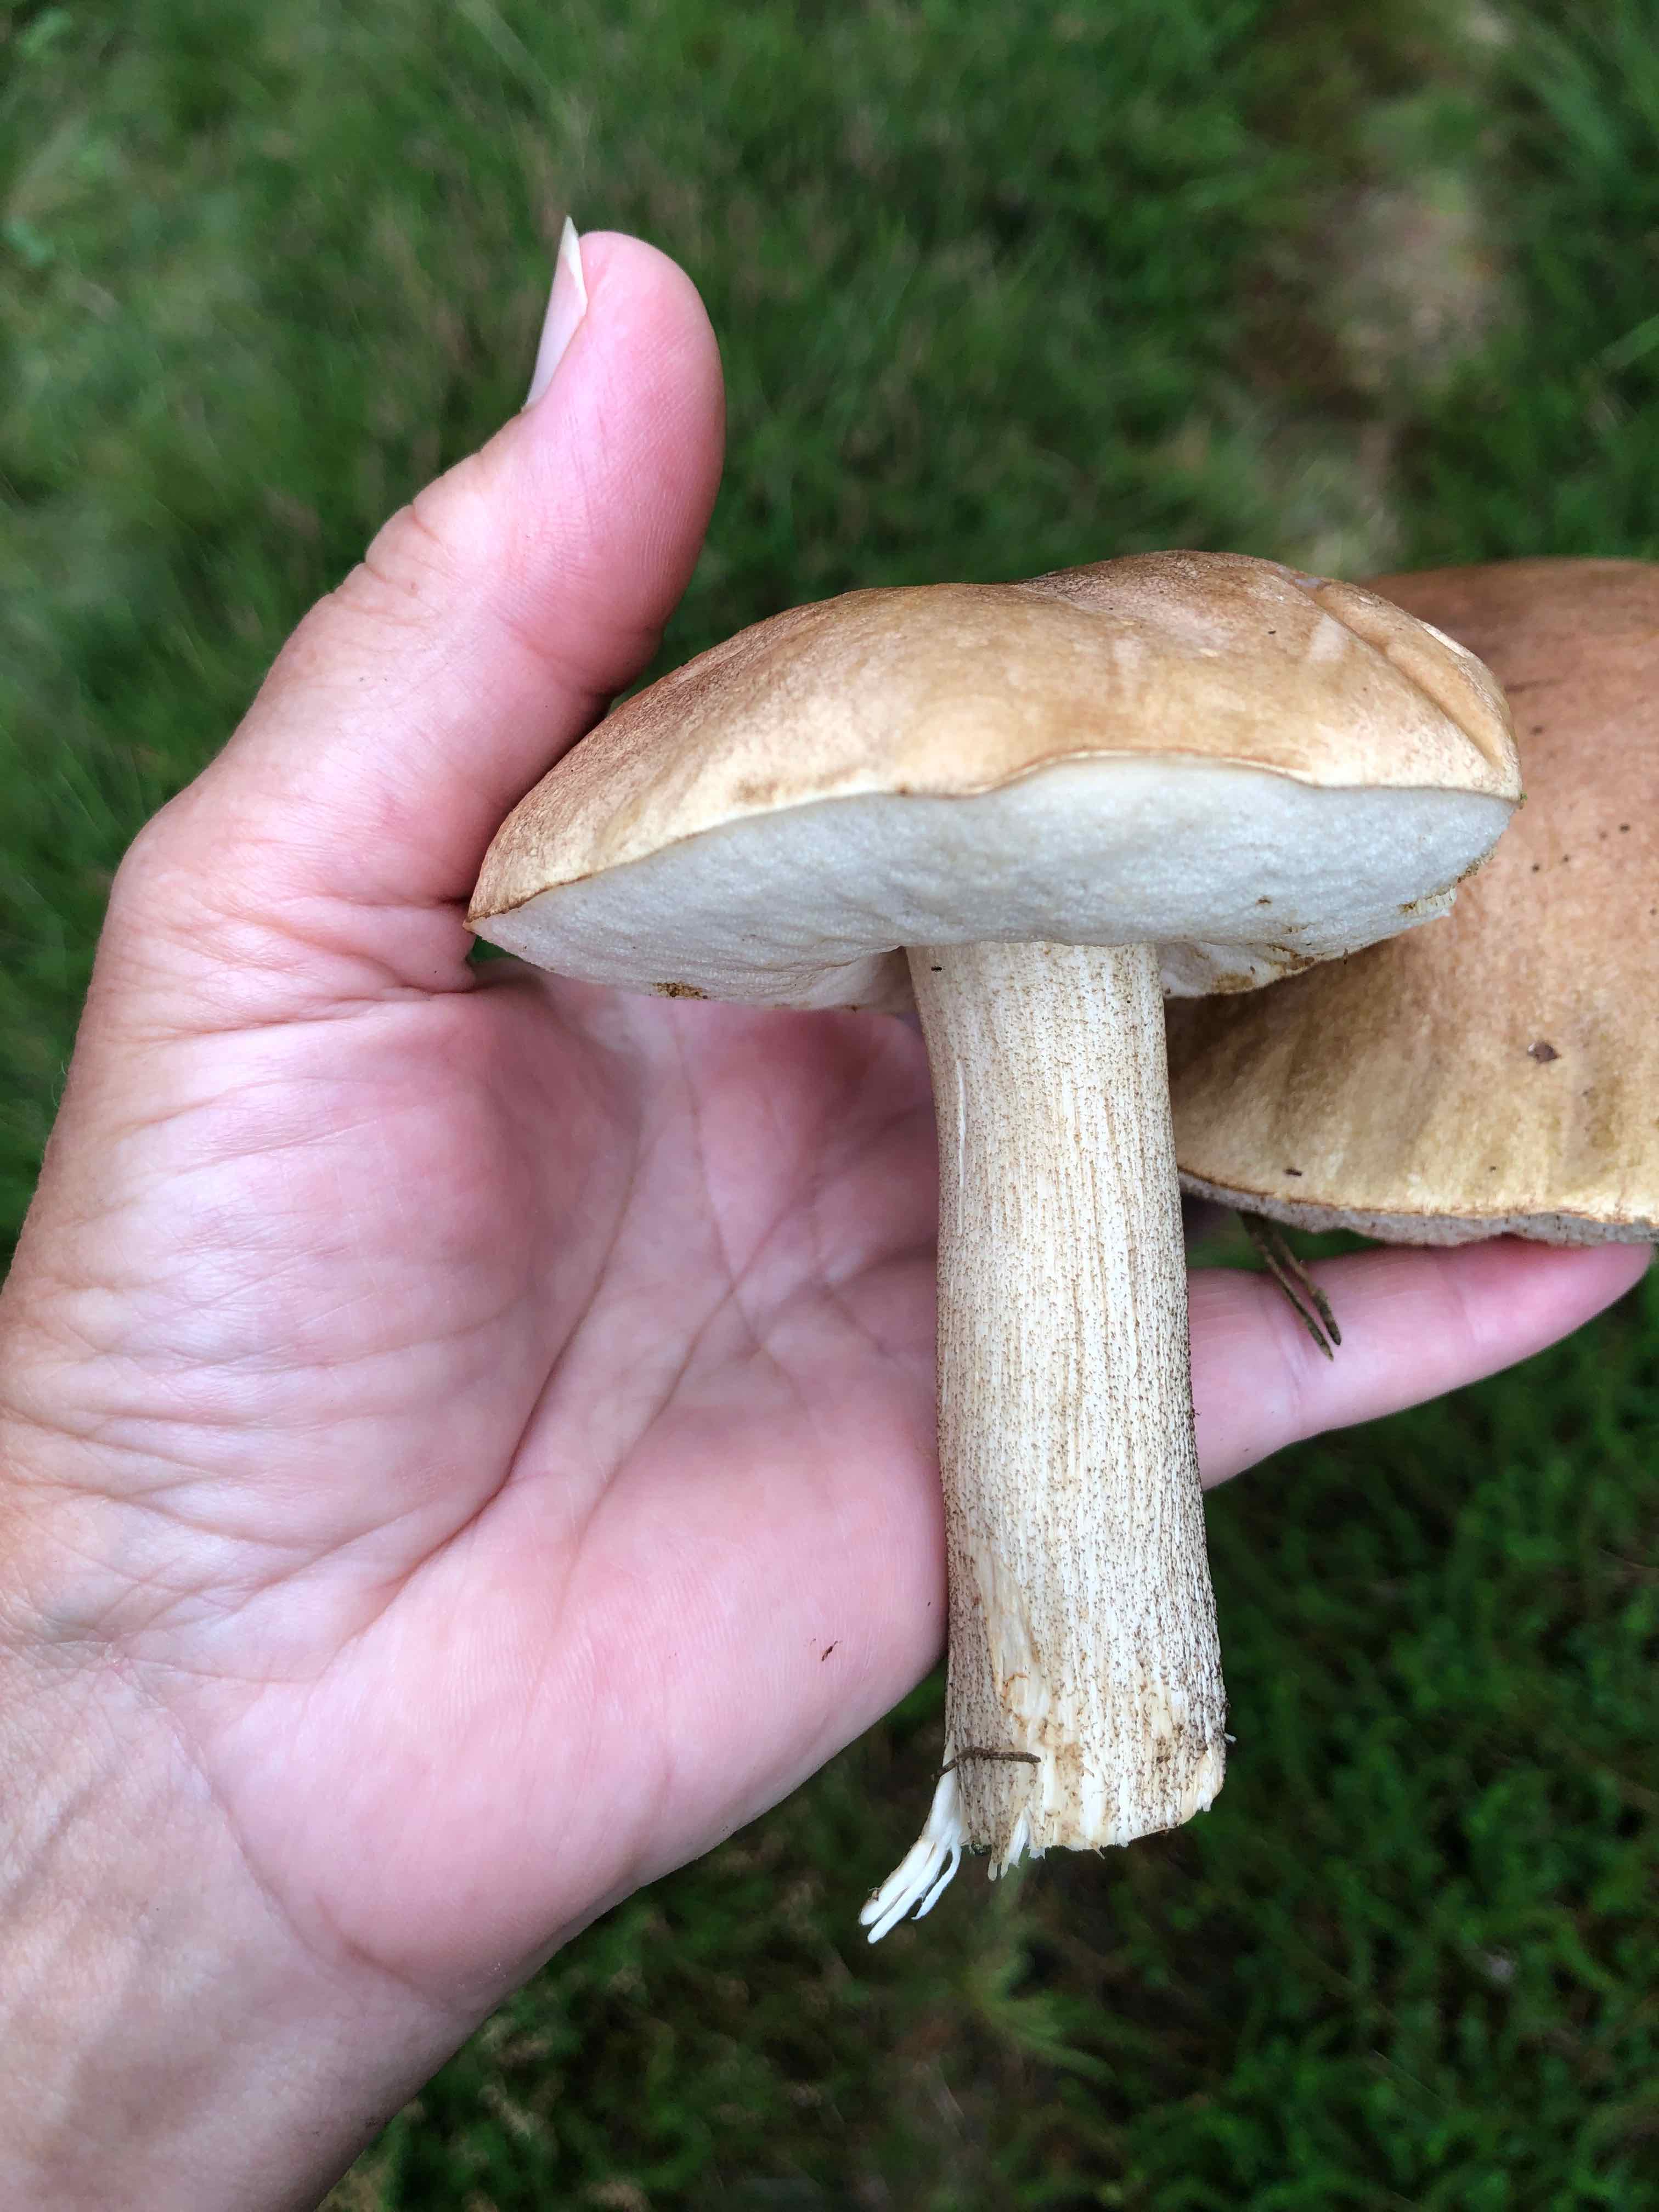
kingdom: Fungi
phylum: Basidiomycota
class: Agaricomycetes
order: Boletales
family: Boletaceae
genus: Leccinum
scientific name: Leccinum
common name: skælrørhat
